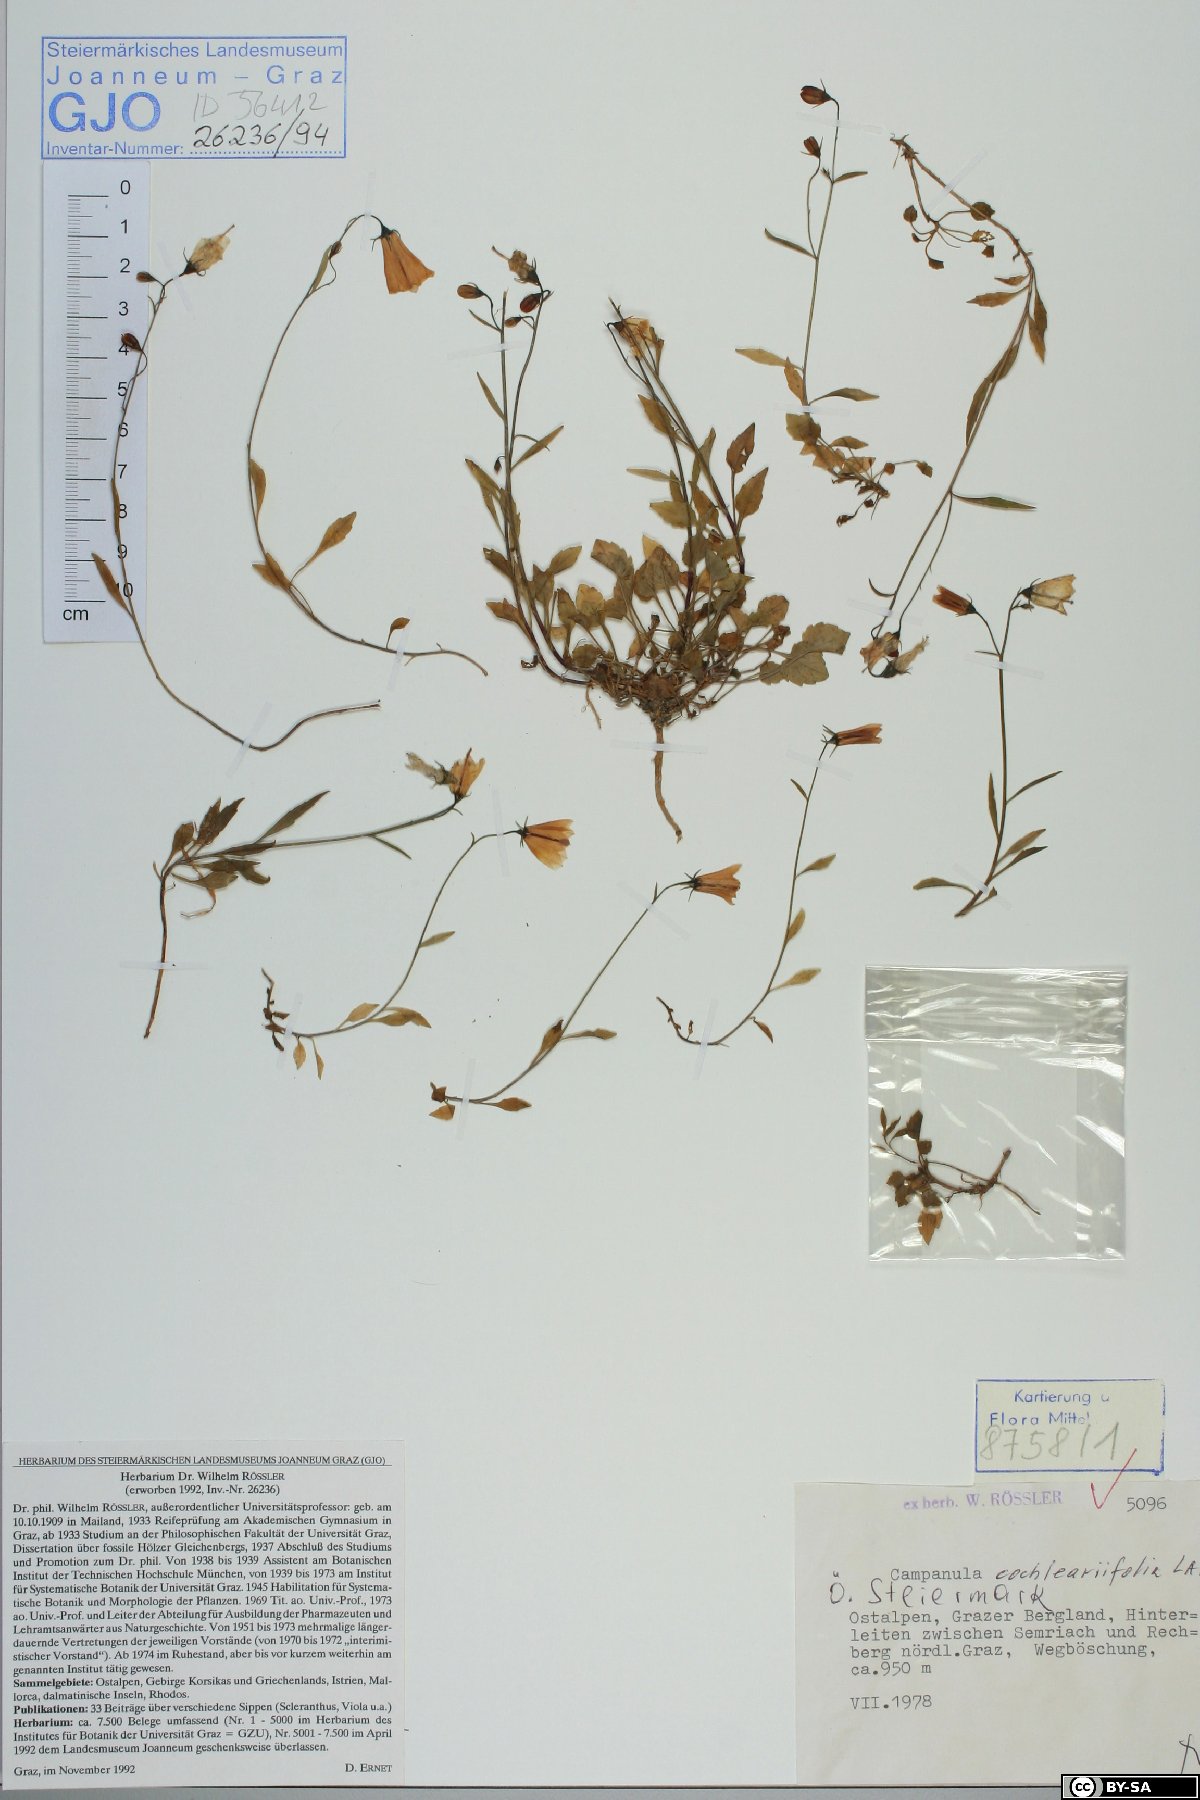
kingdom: Plantae
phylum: Tracheophyta
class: Magnoliopsida
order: Asterales
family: Campanulaceae
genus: Campanula
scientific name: Campanula cochleariifolia
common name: Fairies'-thimbles
